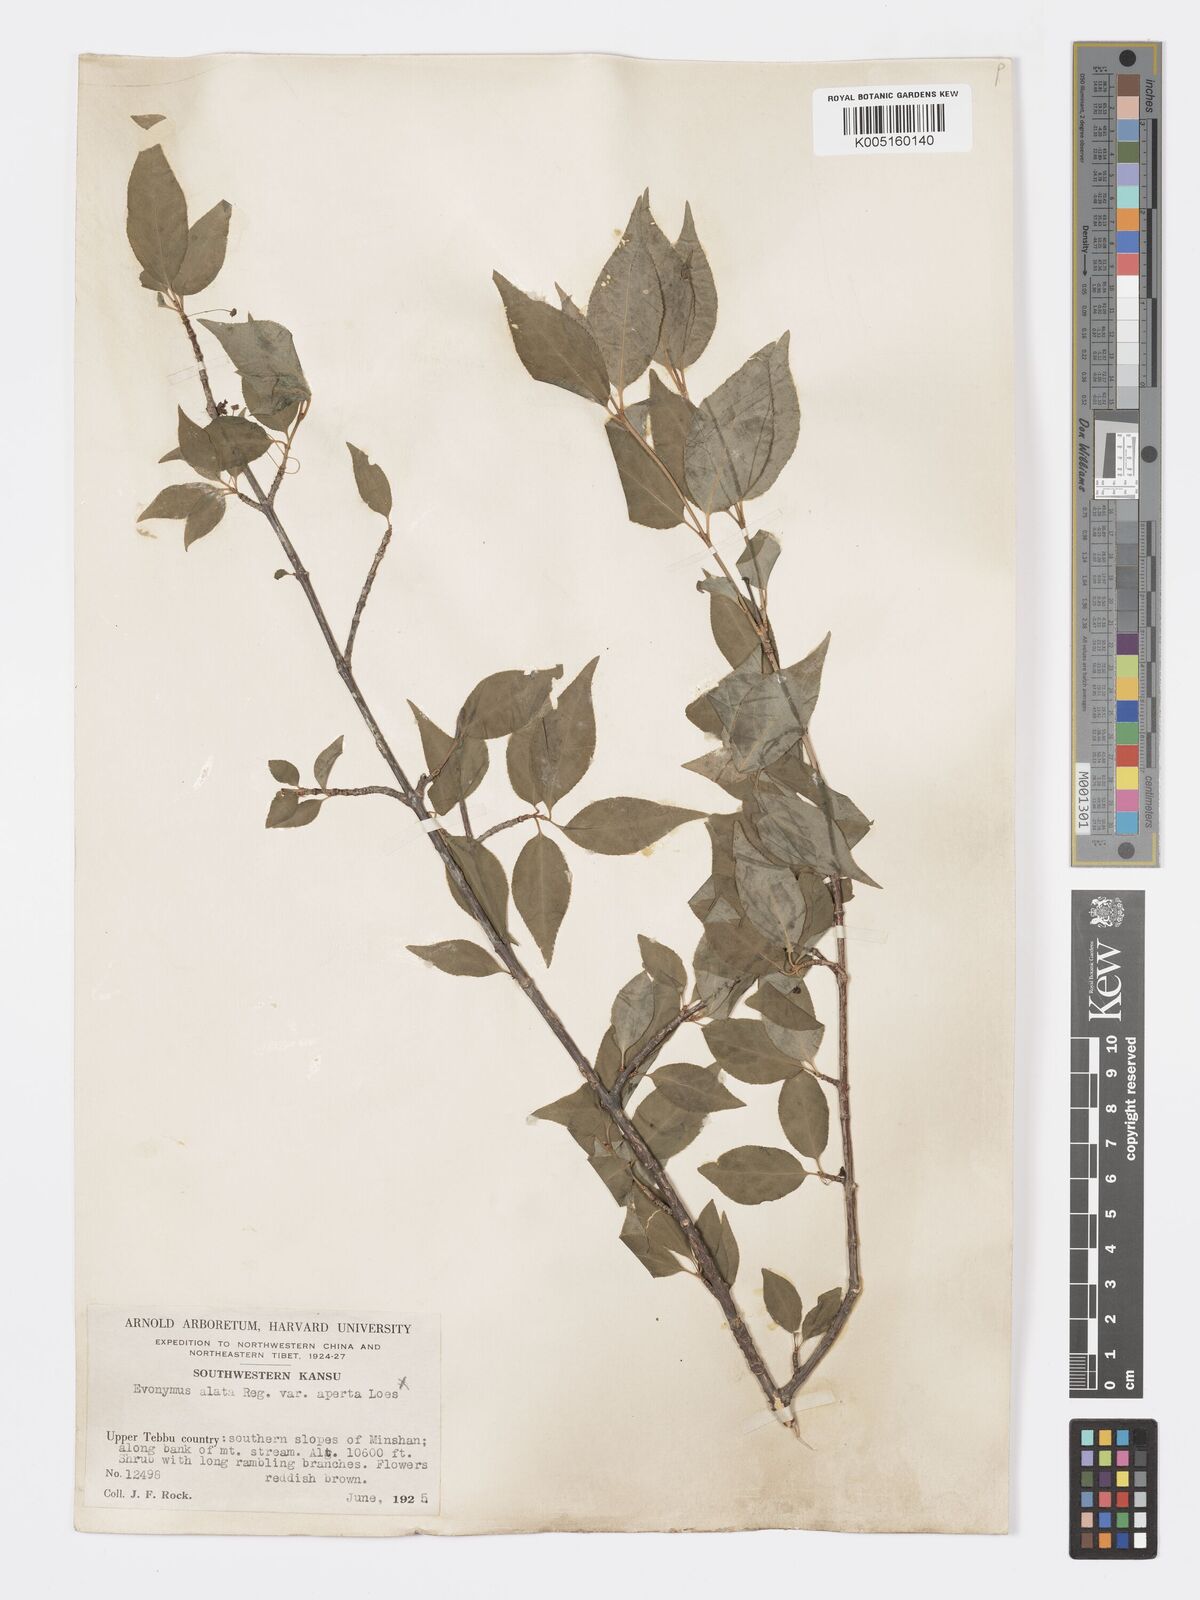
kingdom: Plantae
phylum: Tracheophyta
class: Magnoliopsida
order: Celastrales
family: Celastraceae
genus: Euonymus
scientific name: Euonymus frigidus
